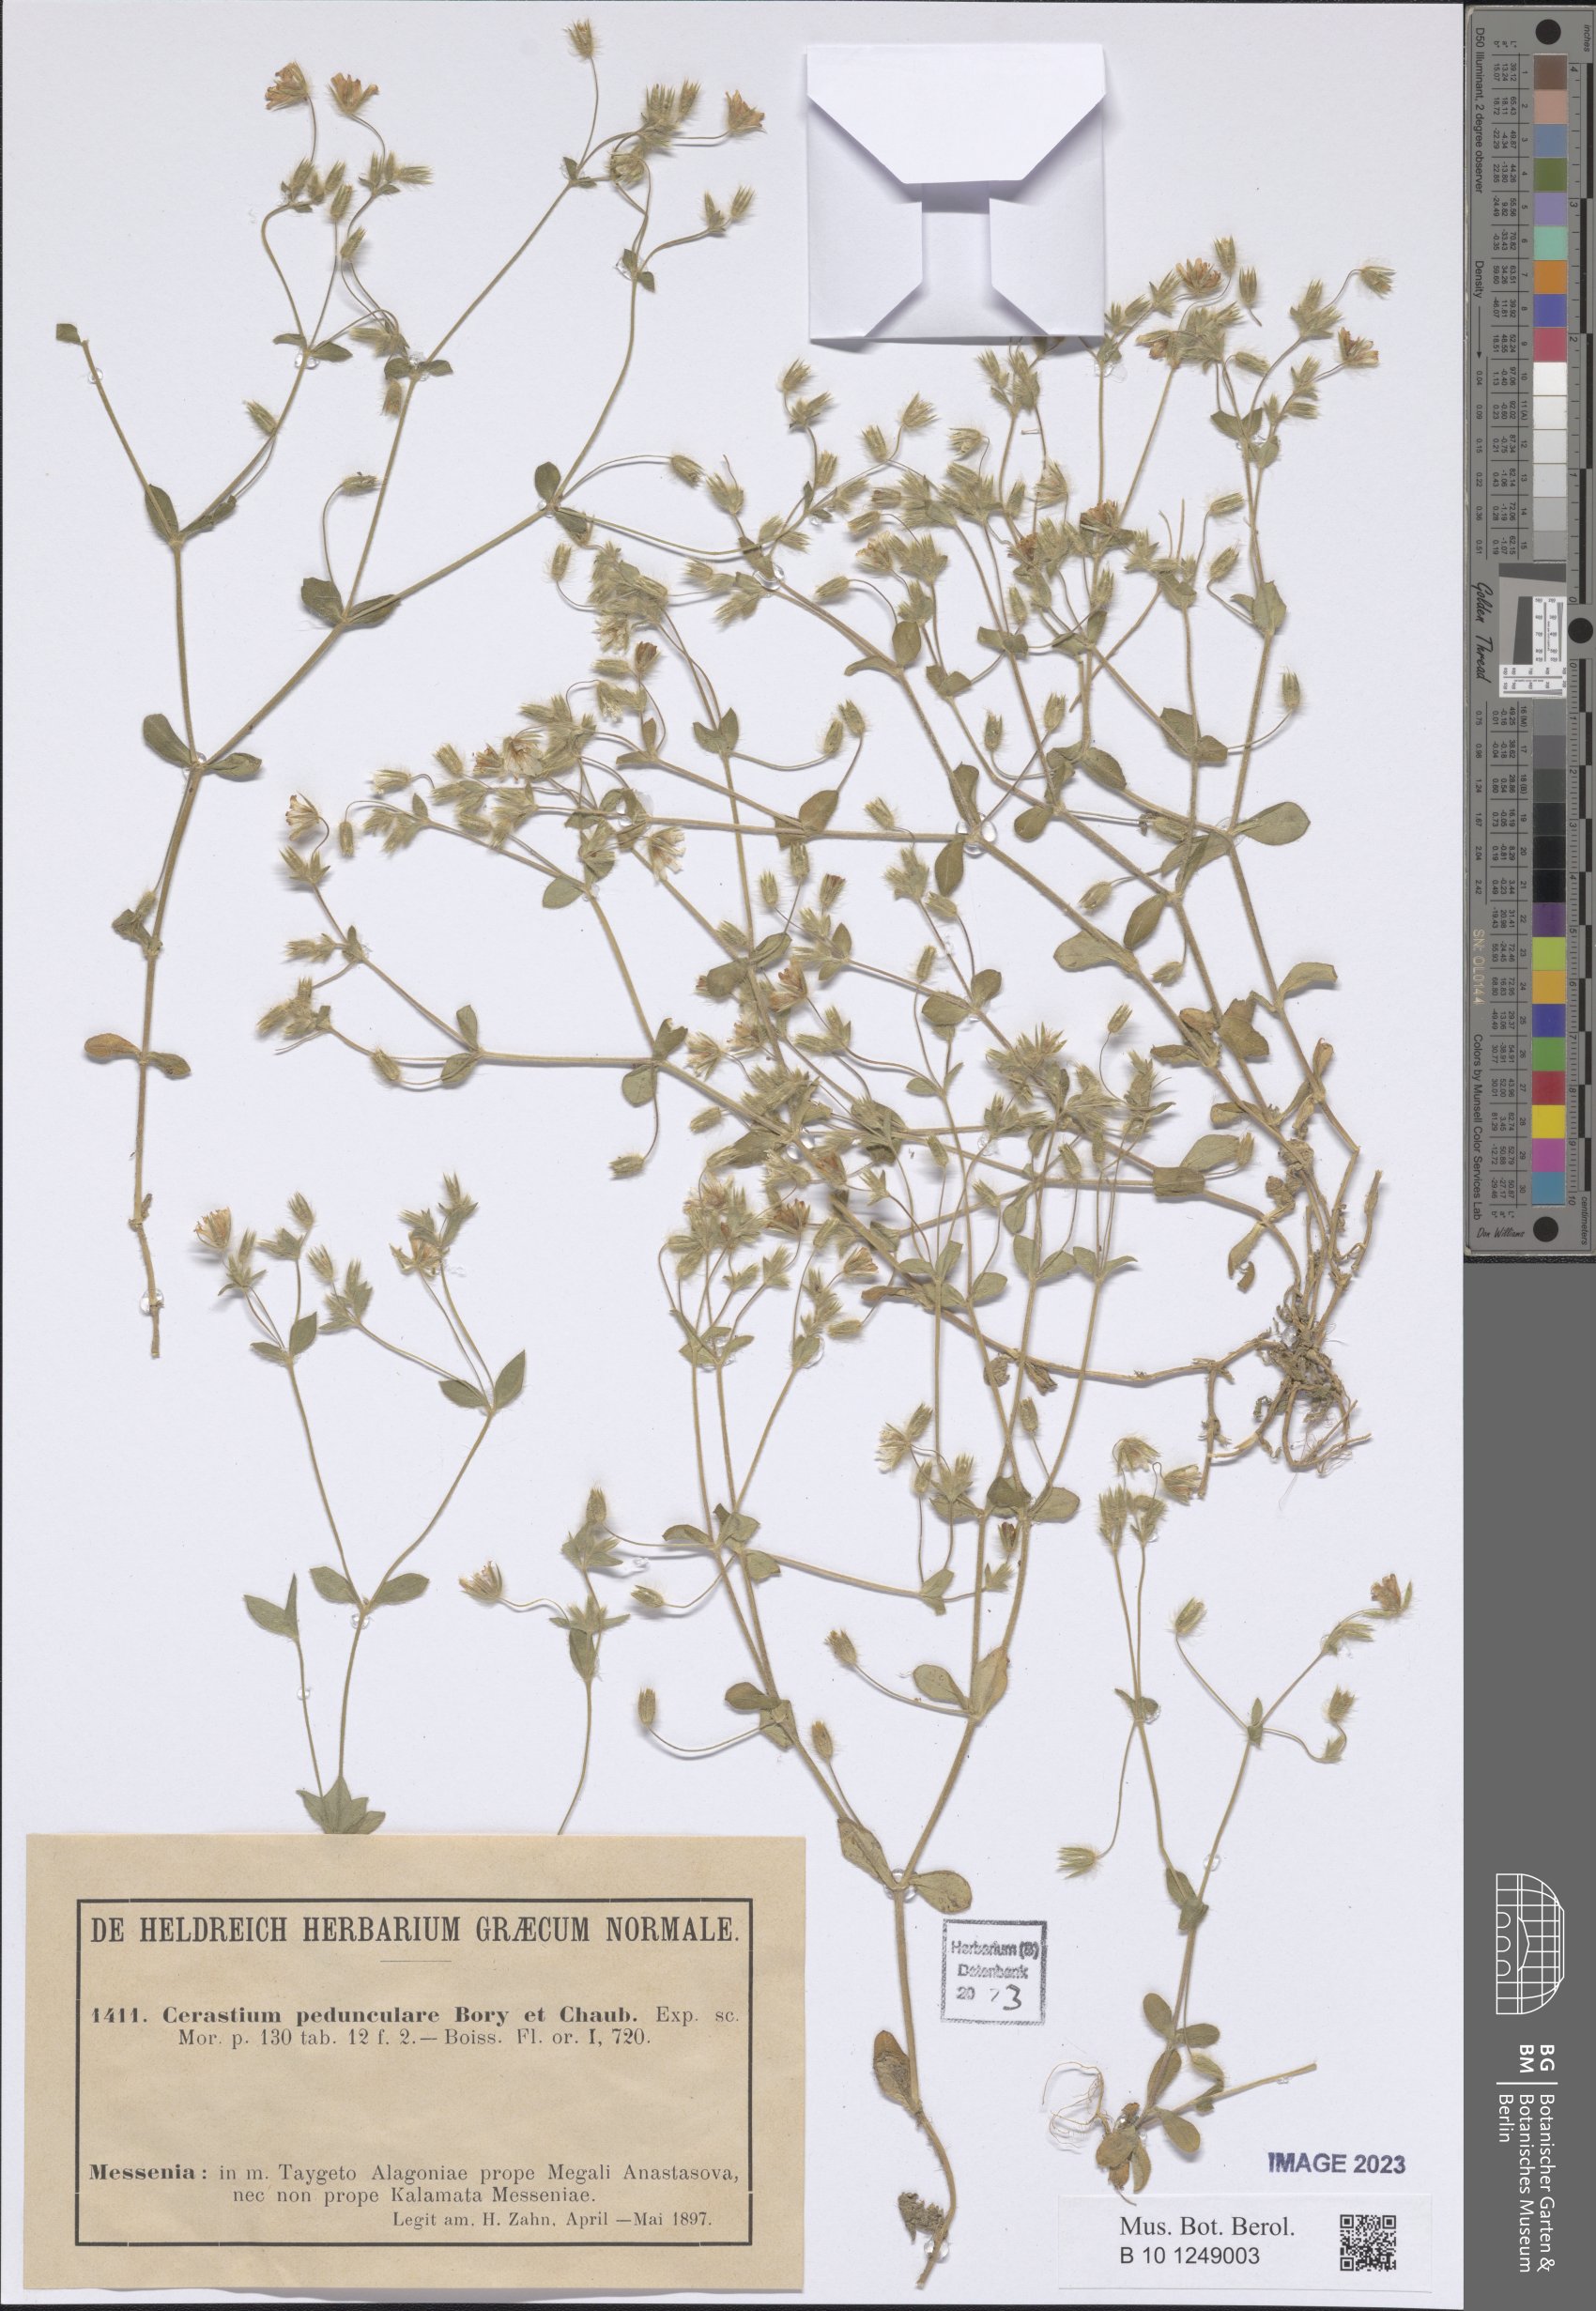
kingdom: Plantae
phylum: Tracheophyta
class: Magnoliopsida
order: Caryophyllales
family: Caryophyllaceae
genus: Cerastium
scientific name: Cerastium pedunculare
